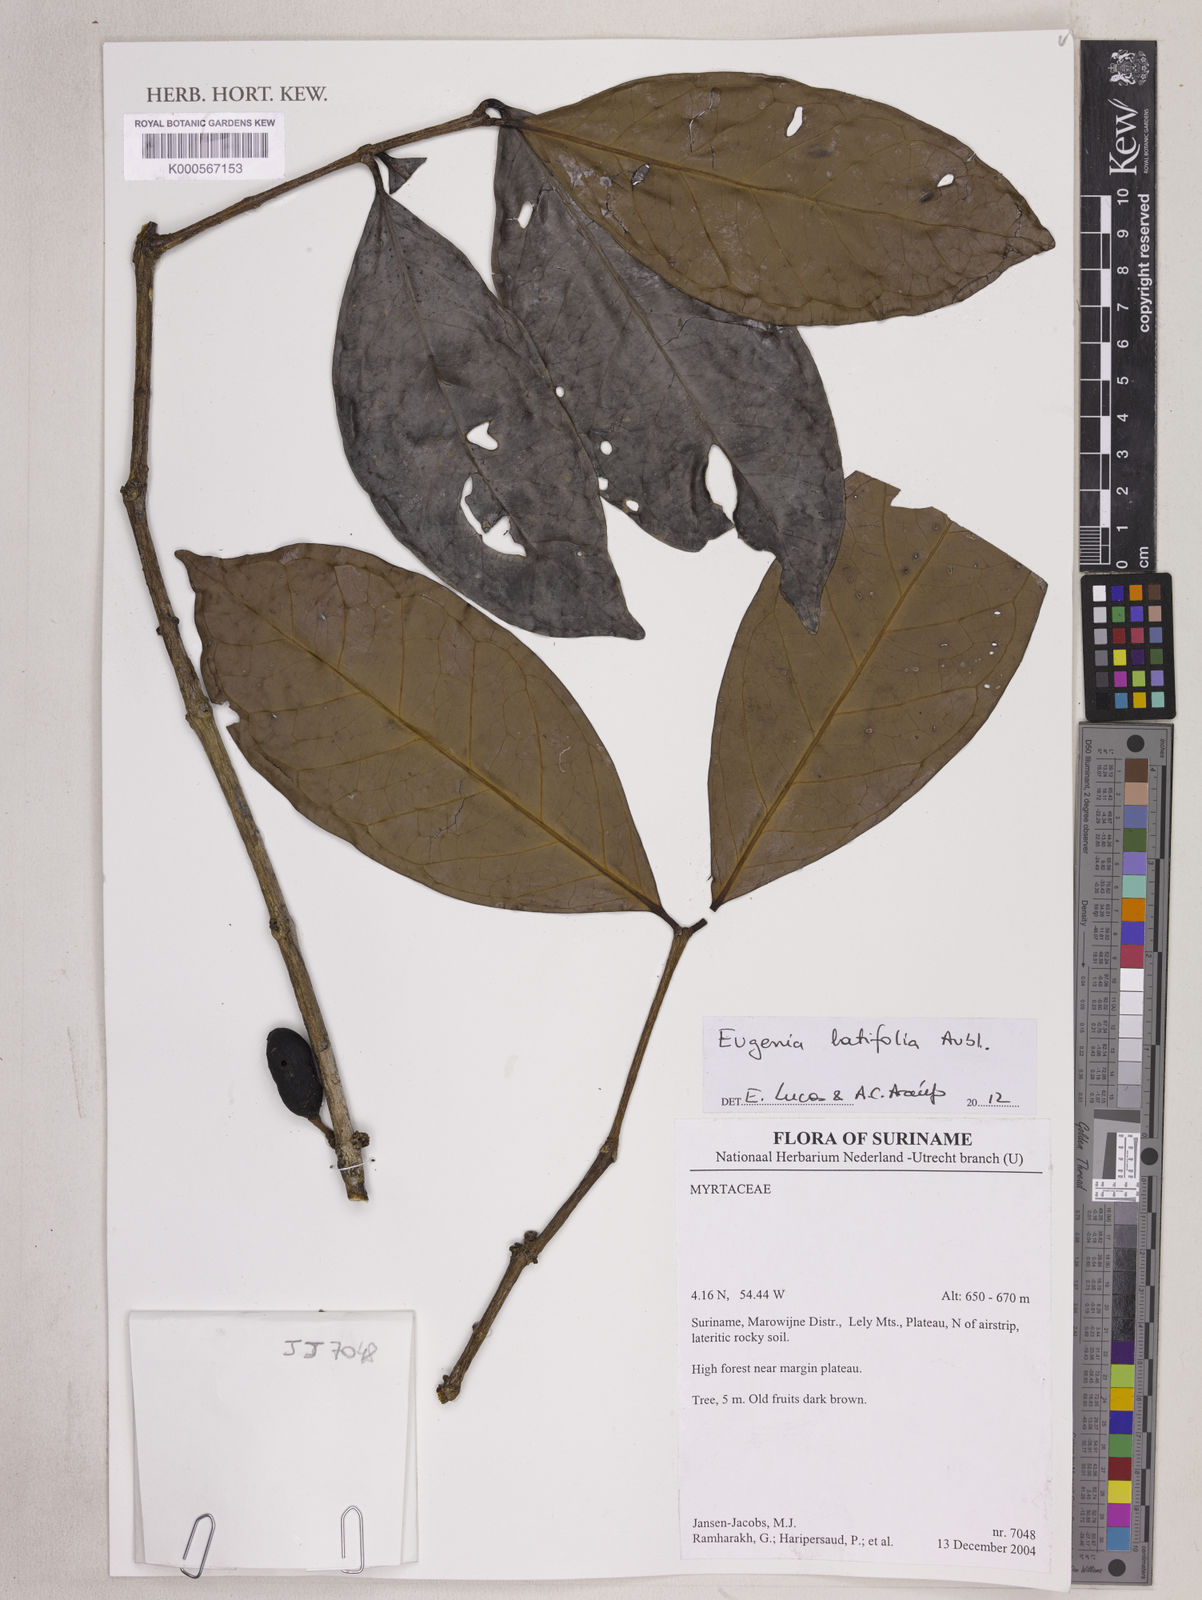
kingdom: Plantae
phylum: Tracheophyta
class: Magnoliopsida
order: Myrtales
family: Myrtaceae
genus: Eugenia
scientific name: Eugenia latifolia
